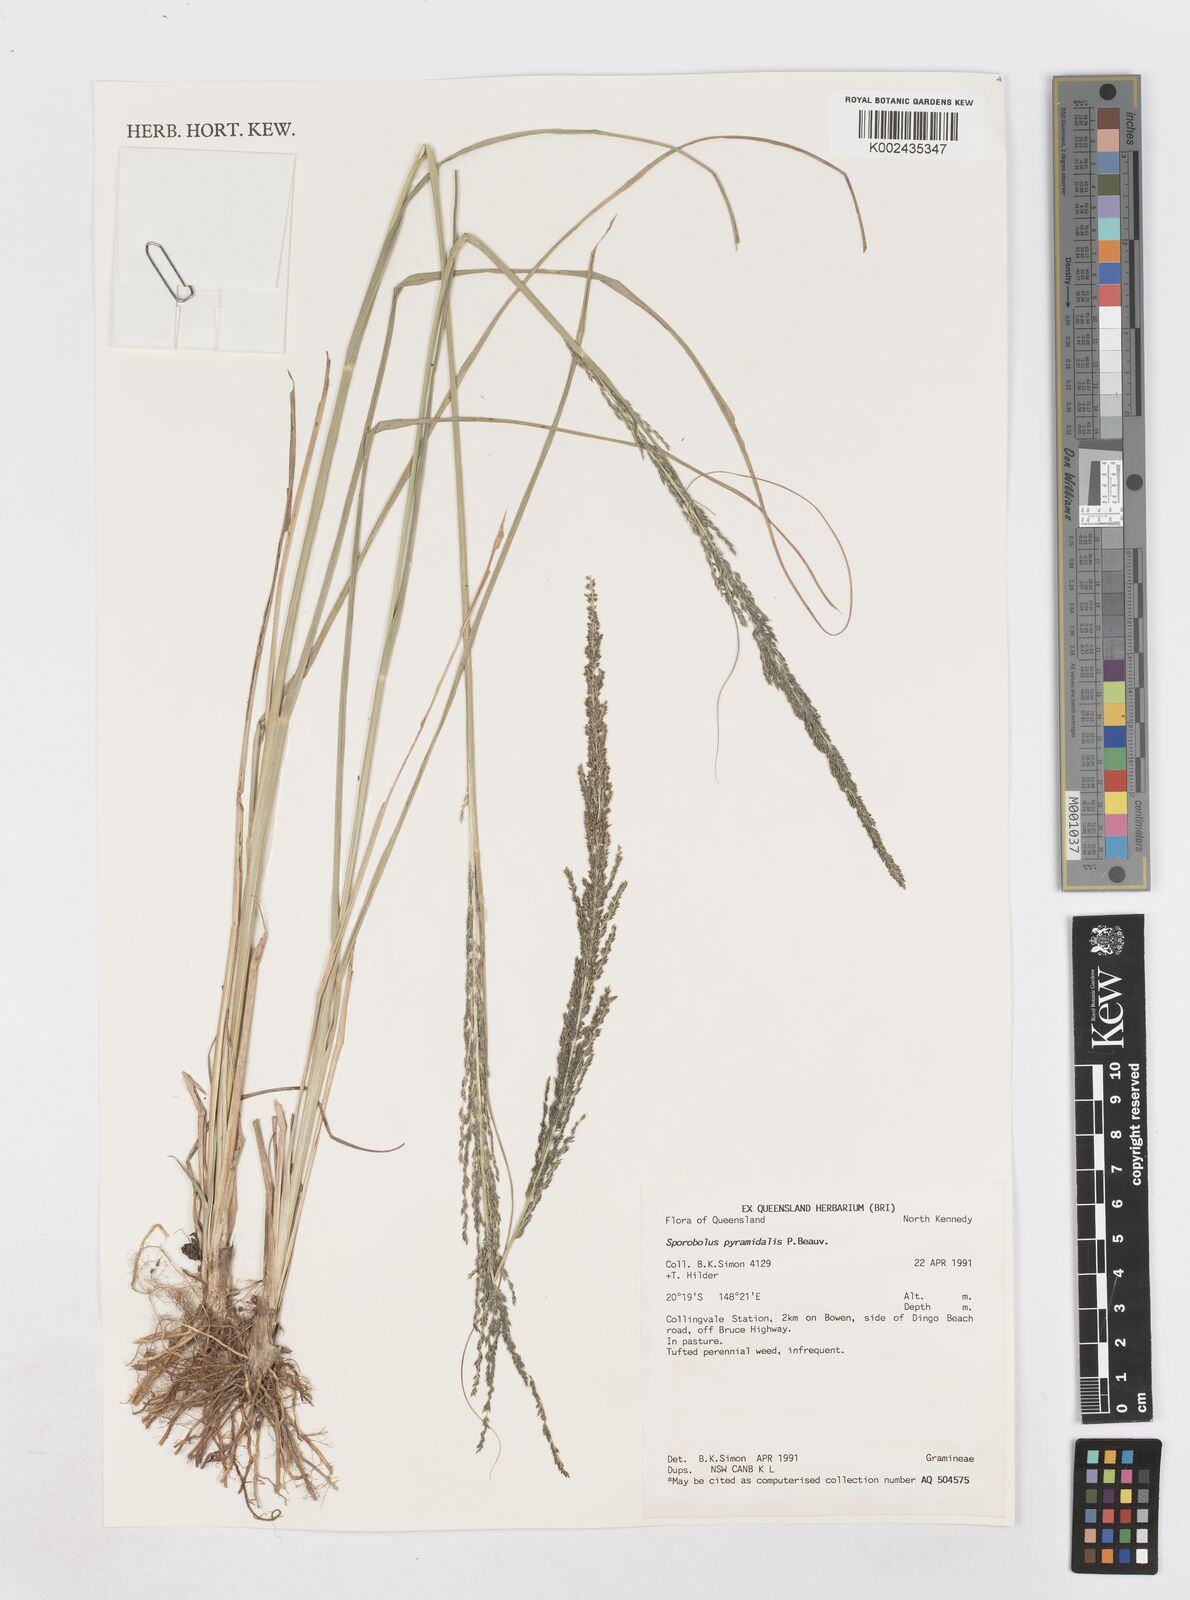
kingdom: Plantae
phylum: Tracheophyta
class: Liliopsida
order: Poales
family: Poaceae
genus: Sporobolus
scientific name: Sporobolus pyramidalis
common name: West indian dropseed
